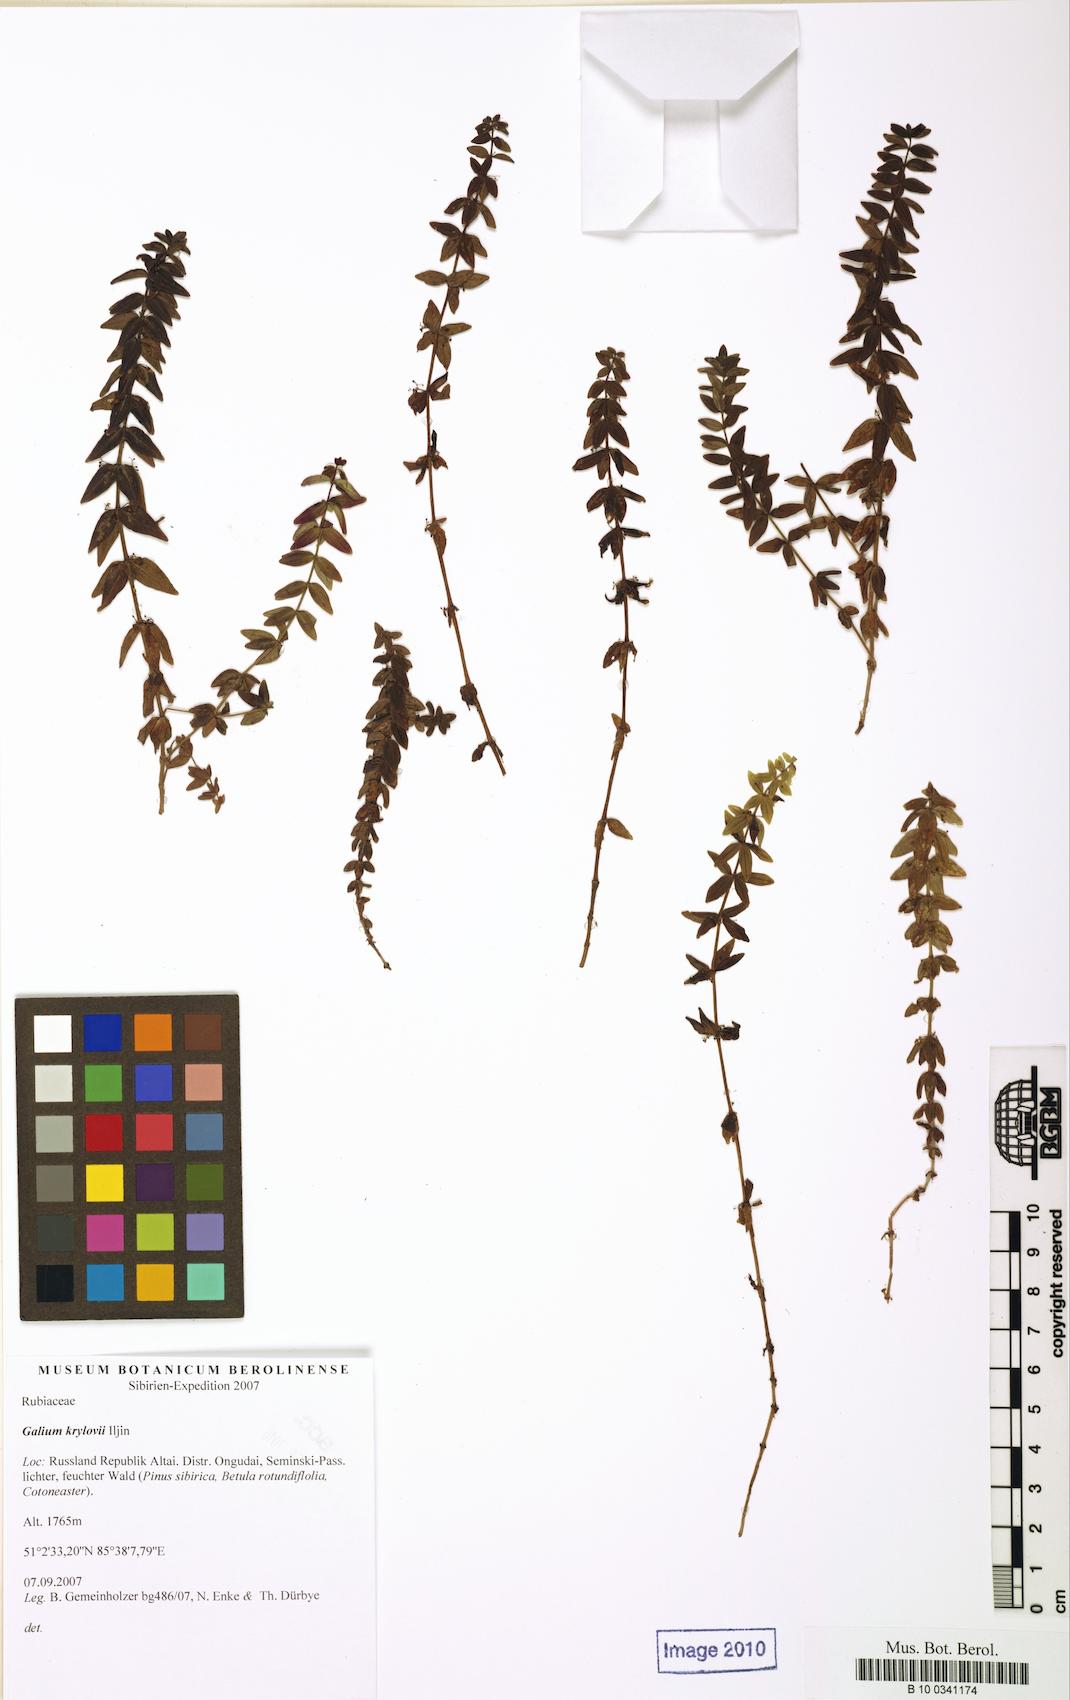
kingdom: Plantae
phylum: Tracheophyta
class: Magnoliopsida
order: Gentianales
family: Rubiaceae
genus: Cruciata
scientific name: Cruciata glabra
